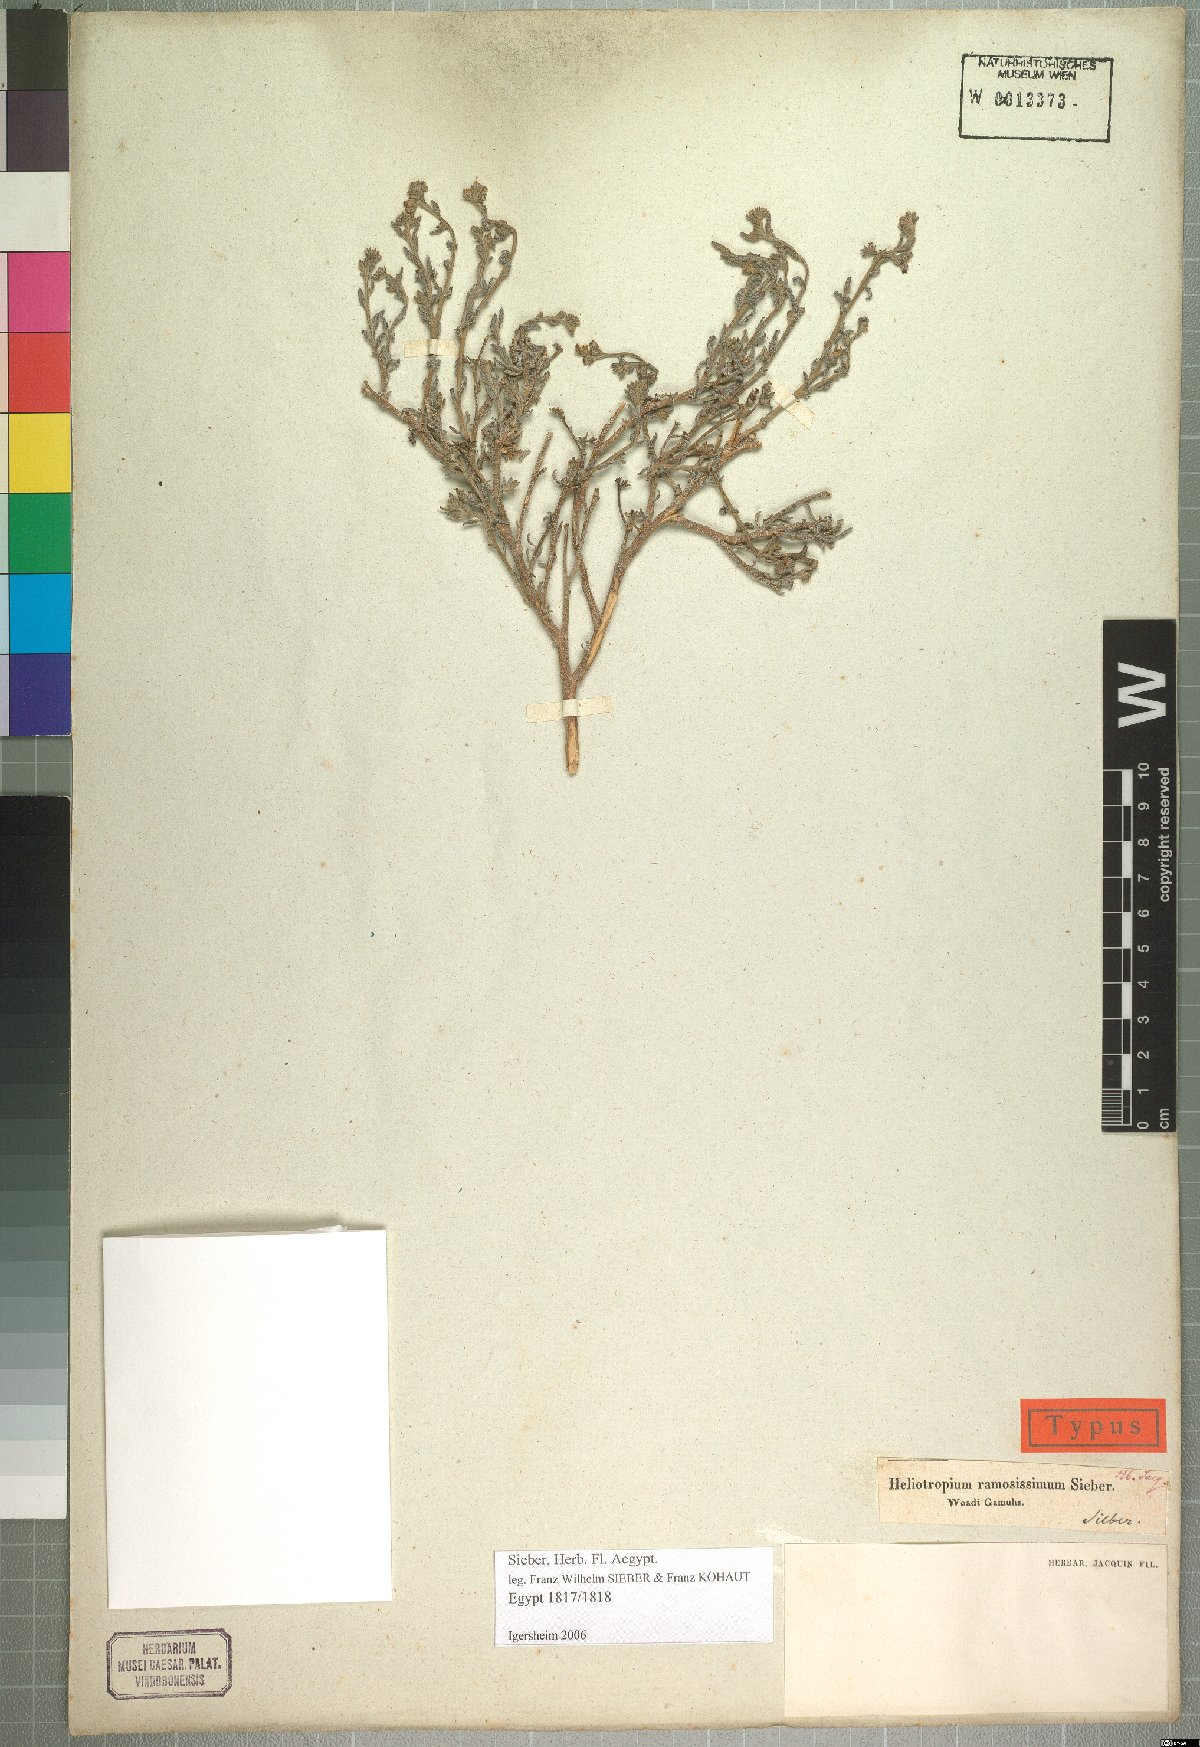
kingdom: Plantae
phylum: Tracheophyta
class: Magnoliopsida
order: Boraginales
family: Heliotropiaceae
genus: Heliotropium
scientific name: Heliotropium bacciferum
